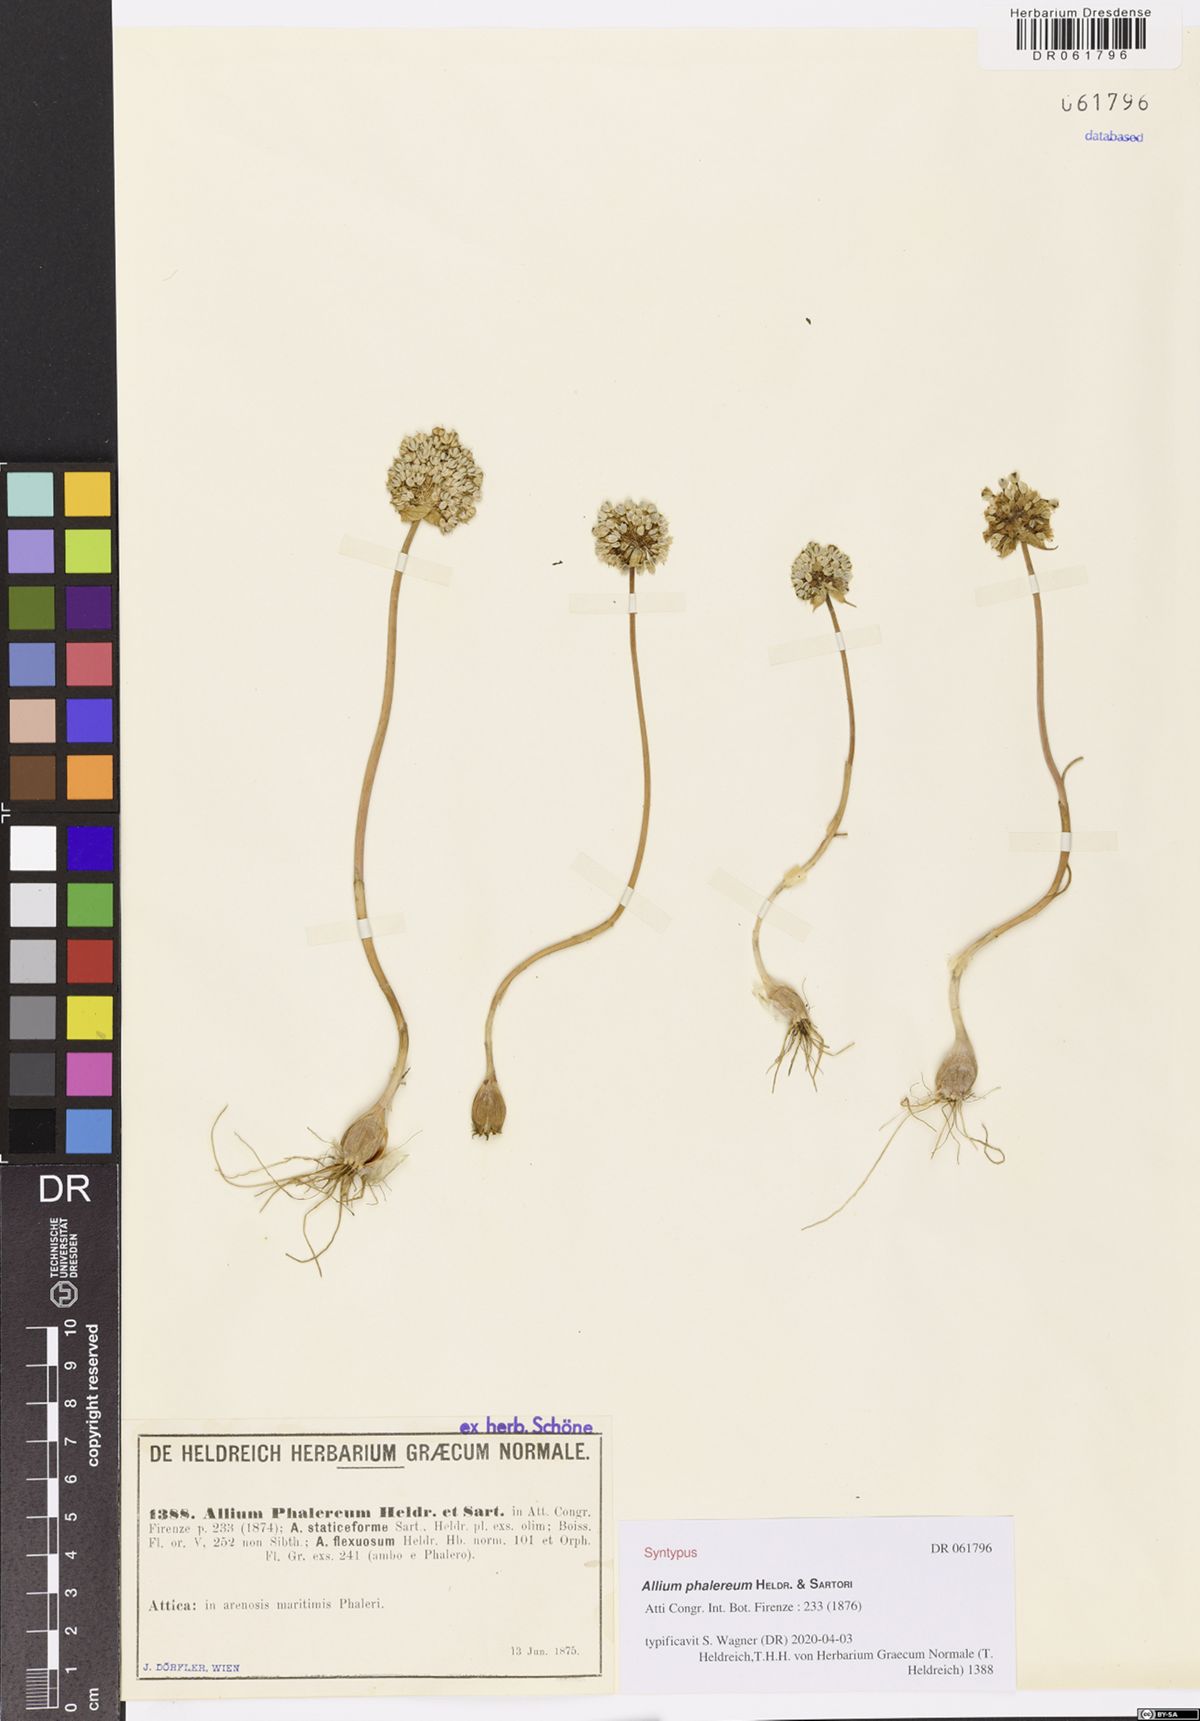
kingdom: Plantae
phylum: Tracheophyta
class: Liliopsida
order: Asparagales
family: Amaryllidaceae
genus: Allium
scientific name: Allium staticiforme
